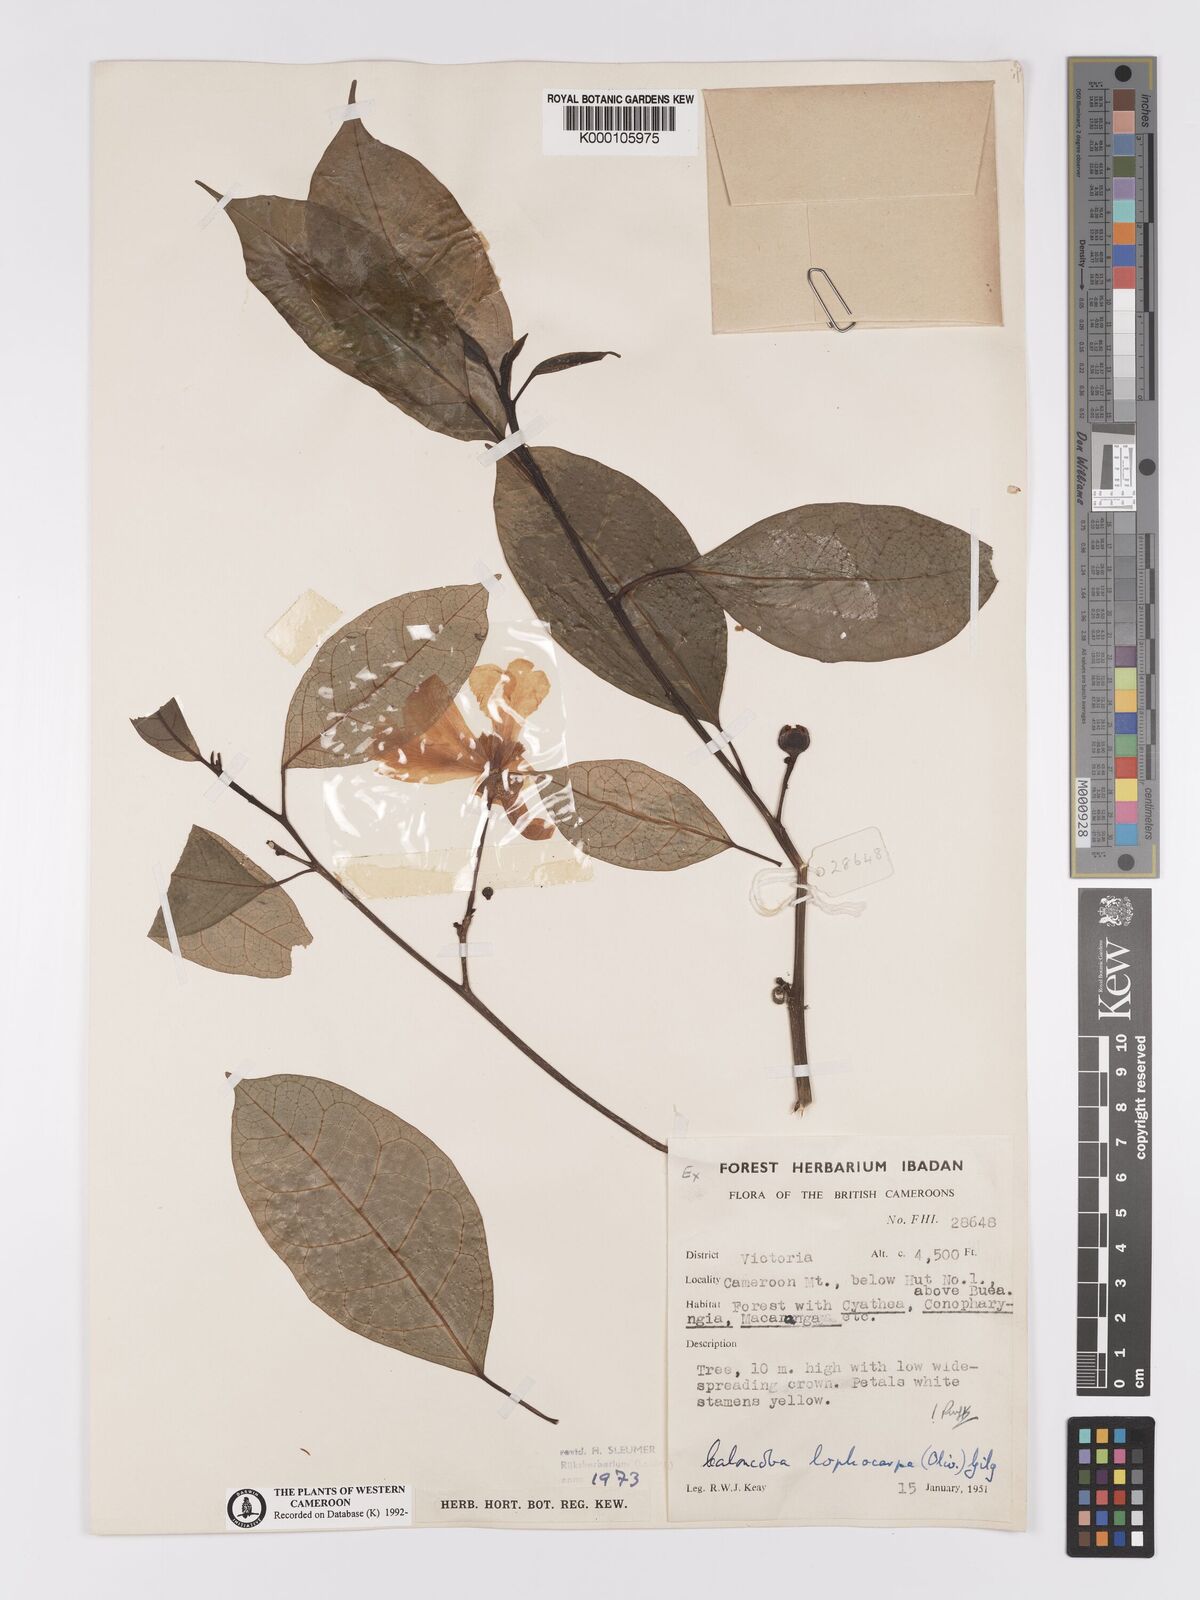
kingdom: Plantae
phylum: Tracheophyta
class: Magnoliopsida
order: Malpighiales
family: Achariaceae
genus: Caloncoba
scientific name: Caloncoba lophocarpa
